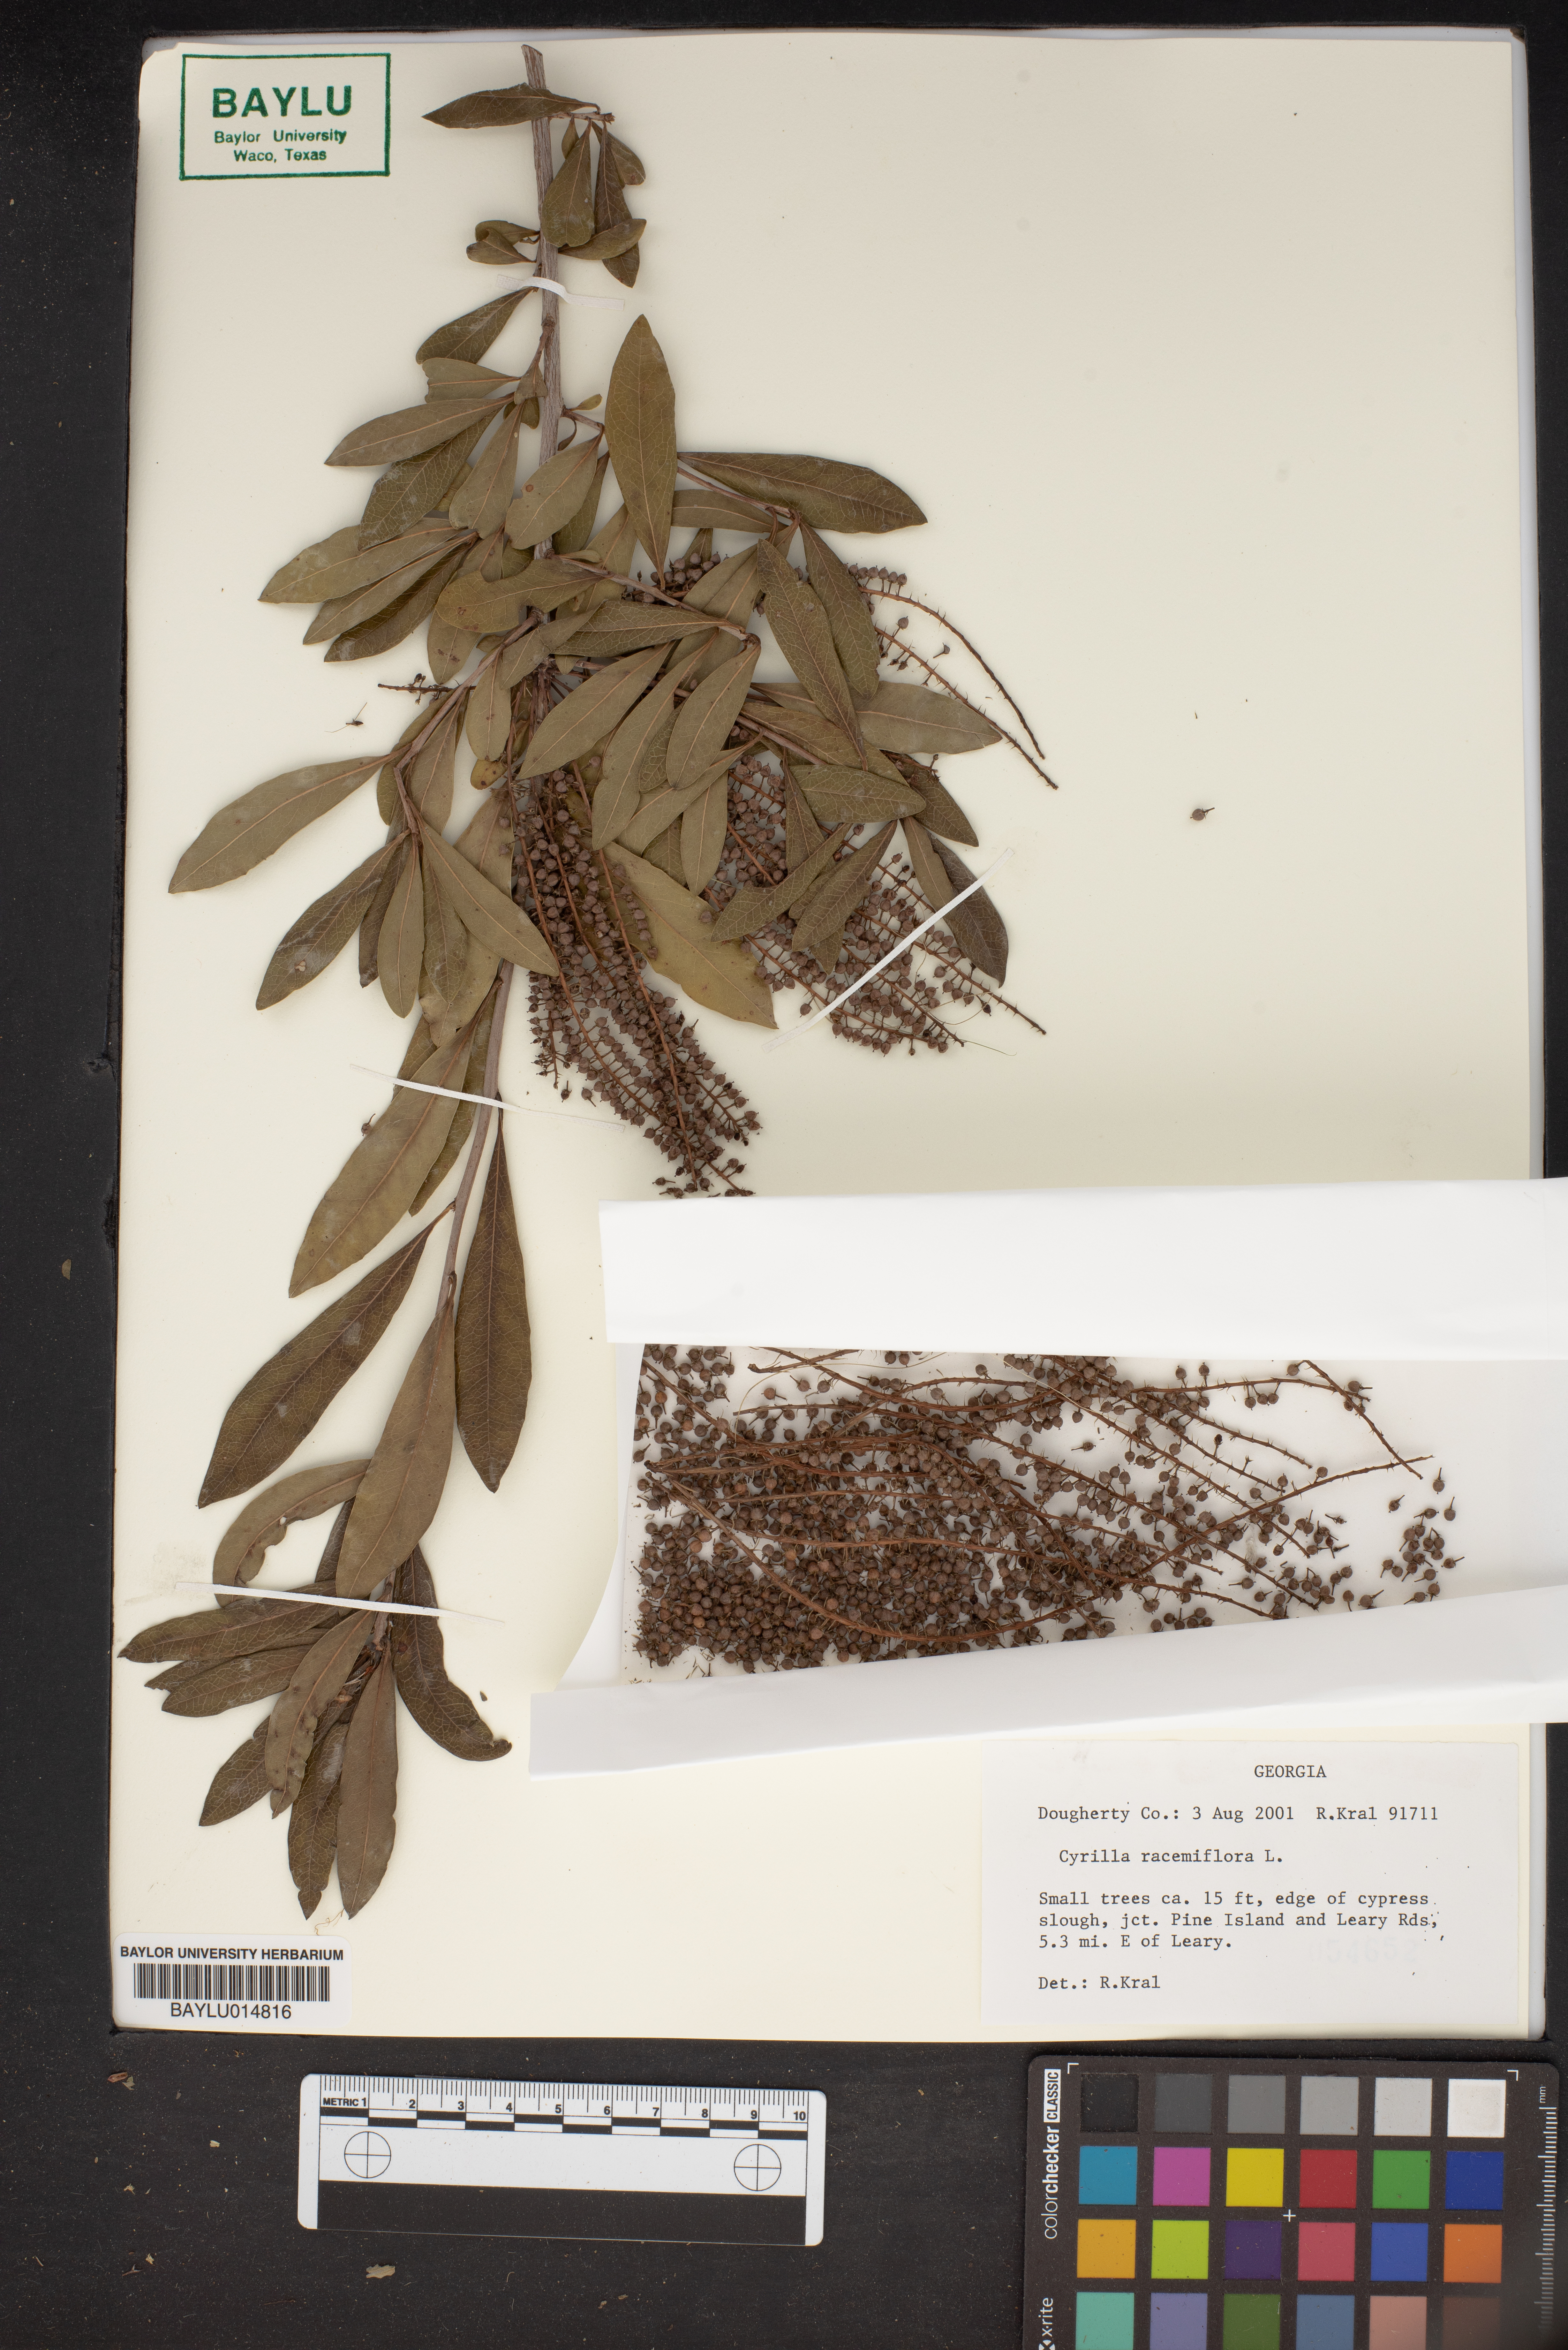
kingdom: Plantae
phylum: Tracheophyta
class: Magnoliopsida
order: Ericales
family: Cyrillaceae
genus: Cyrilla
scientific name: Cyrilla racemiflora
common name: Black titi
